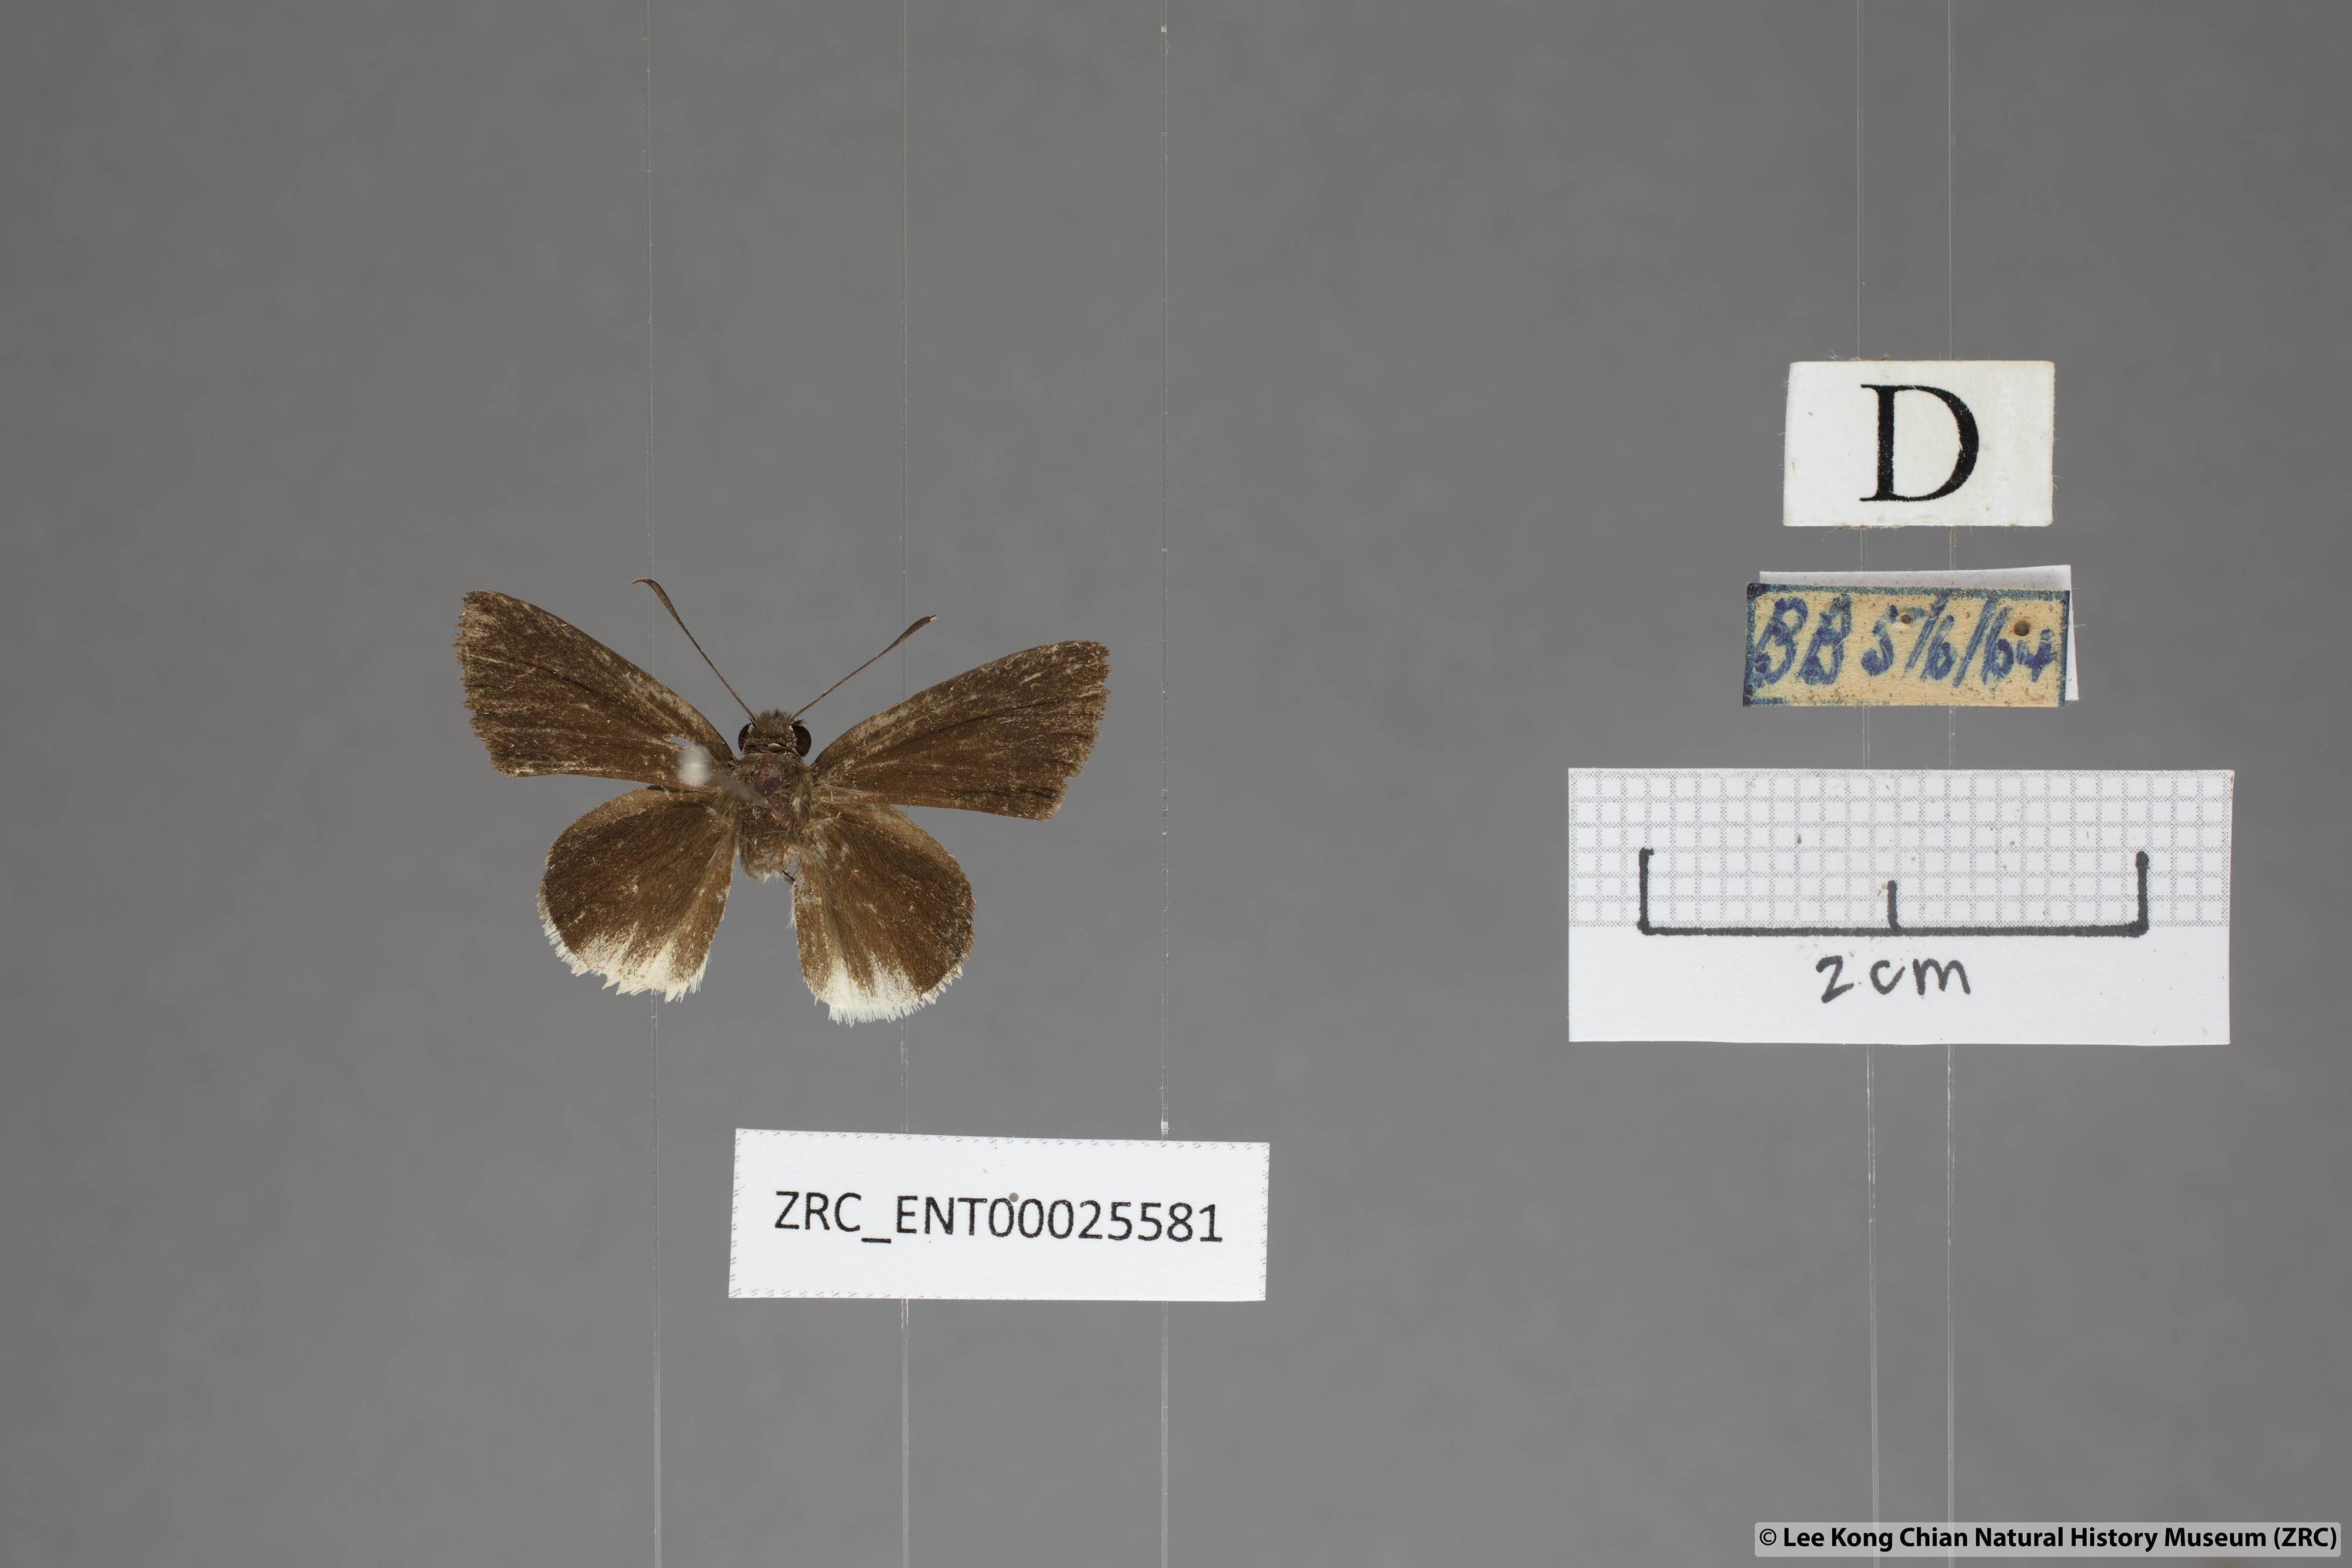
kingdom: Animalia
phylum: Arthropoda
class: Insecta
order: Lepidoptera
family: Hesperiidae
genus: Suastus
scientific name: Suastus everyx
